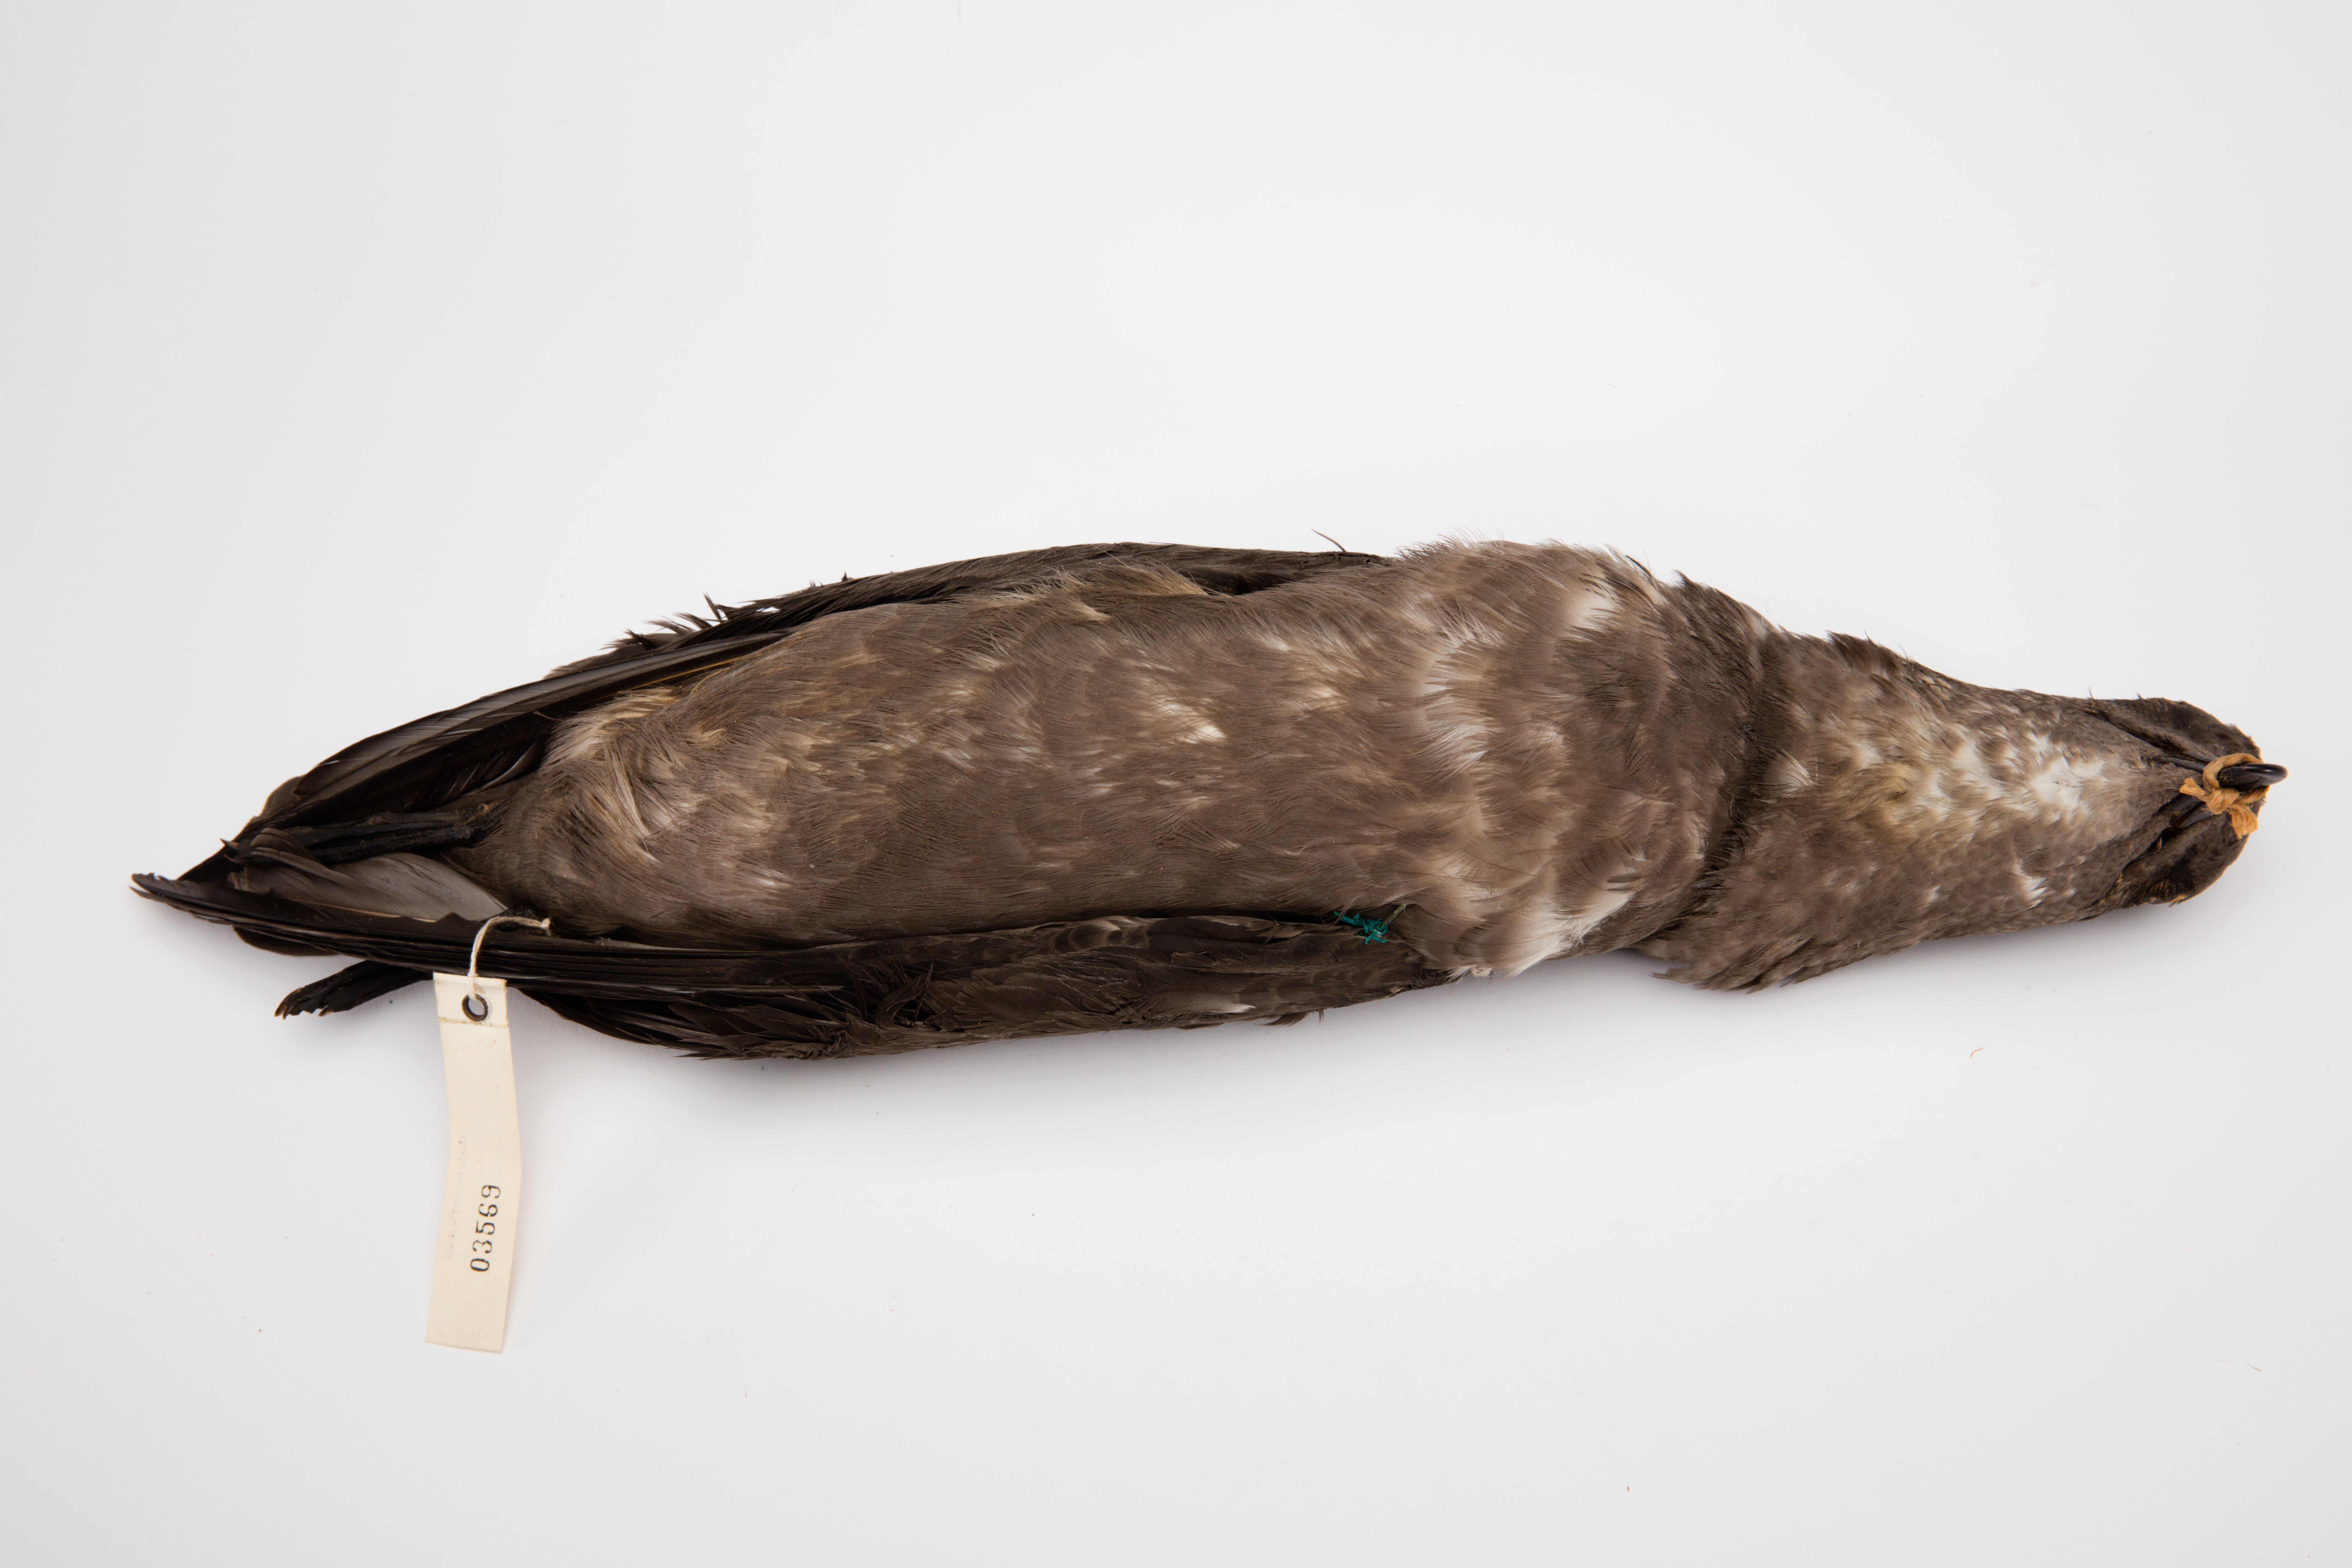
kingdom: Animalia
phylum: Chordata
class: Aves
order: Procellariiformes
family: Procellariidae
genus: Pterodroma
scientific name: Pterodroma neglecta
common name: Kermadec petrel
